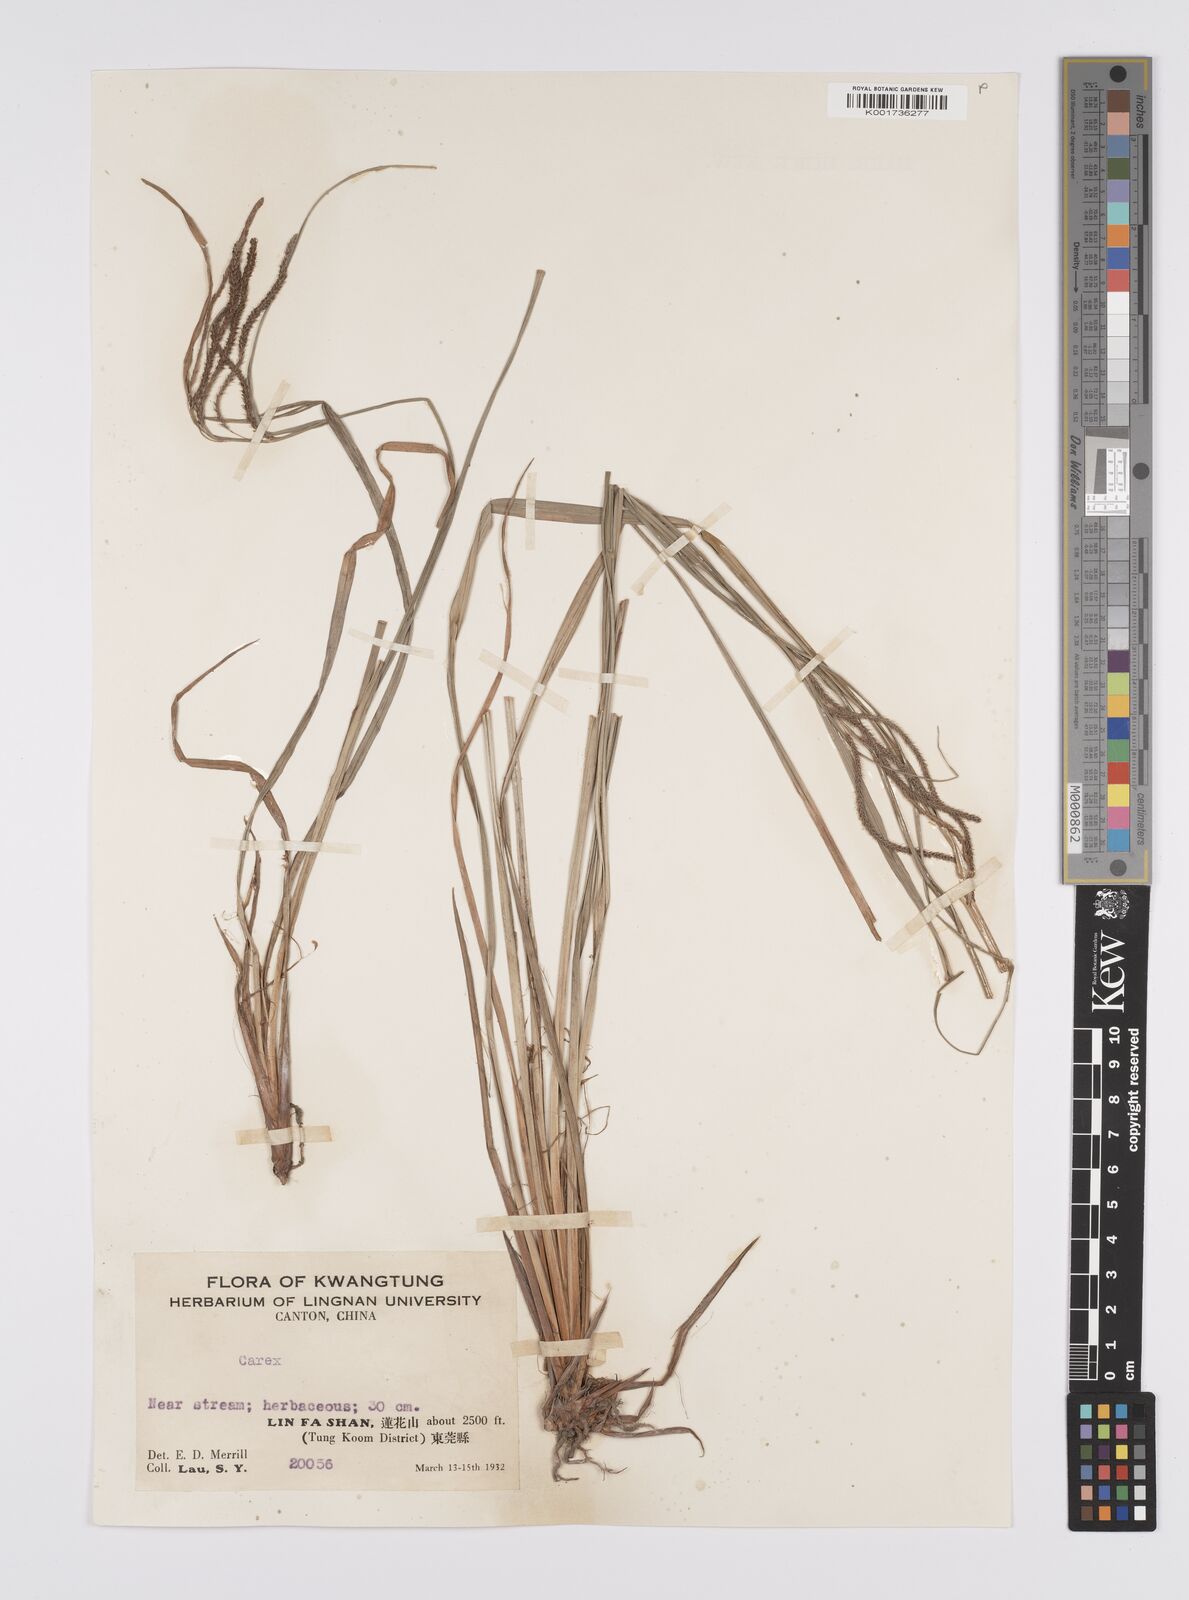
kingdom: Plantae
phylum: Tracheophyta
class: Liliopsida
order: Poales
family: Cyperaceae
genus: Carex
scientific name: Carex phacota
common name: Lakeshore sedge
